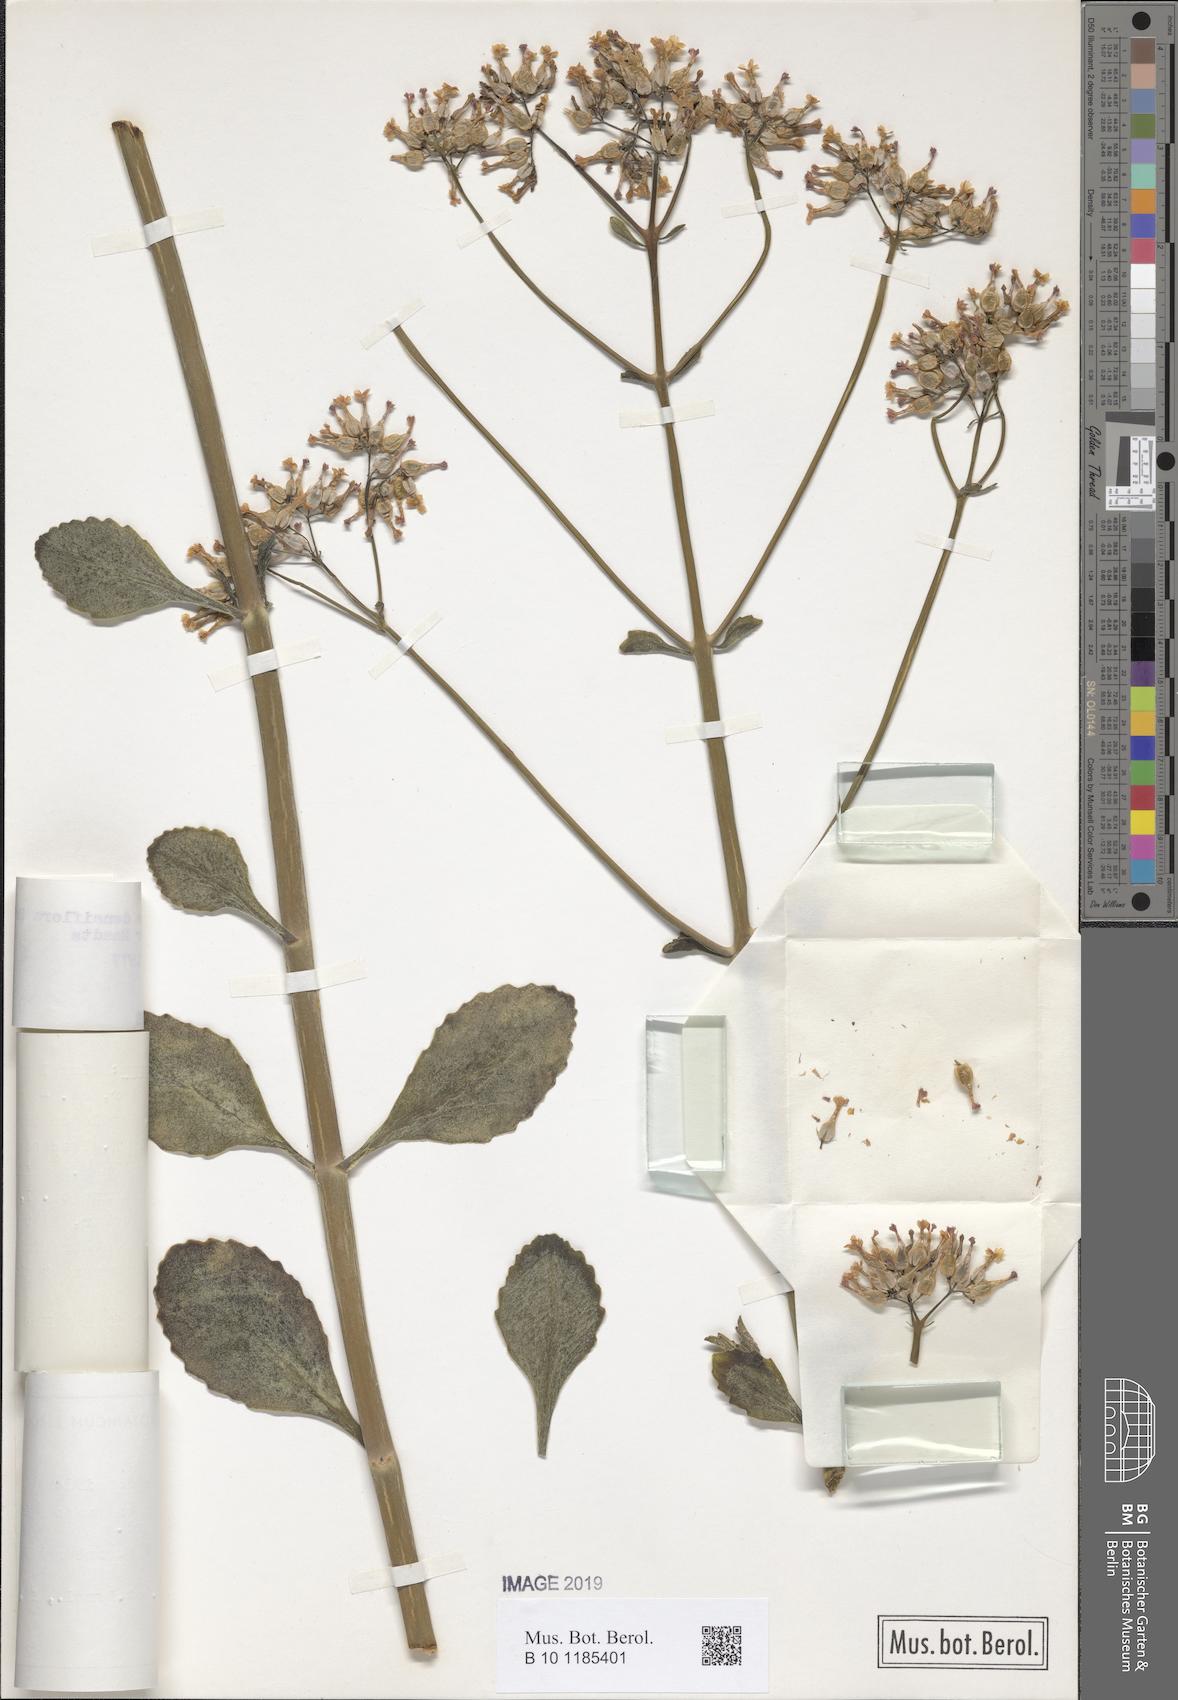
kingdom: Plantae
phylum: Tracheophyta
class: Magnoliopsida
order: Saxifragales
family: Crassulaceae
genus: Kalanchoe
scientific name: Kalanchoe densiflora
